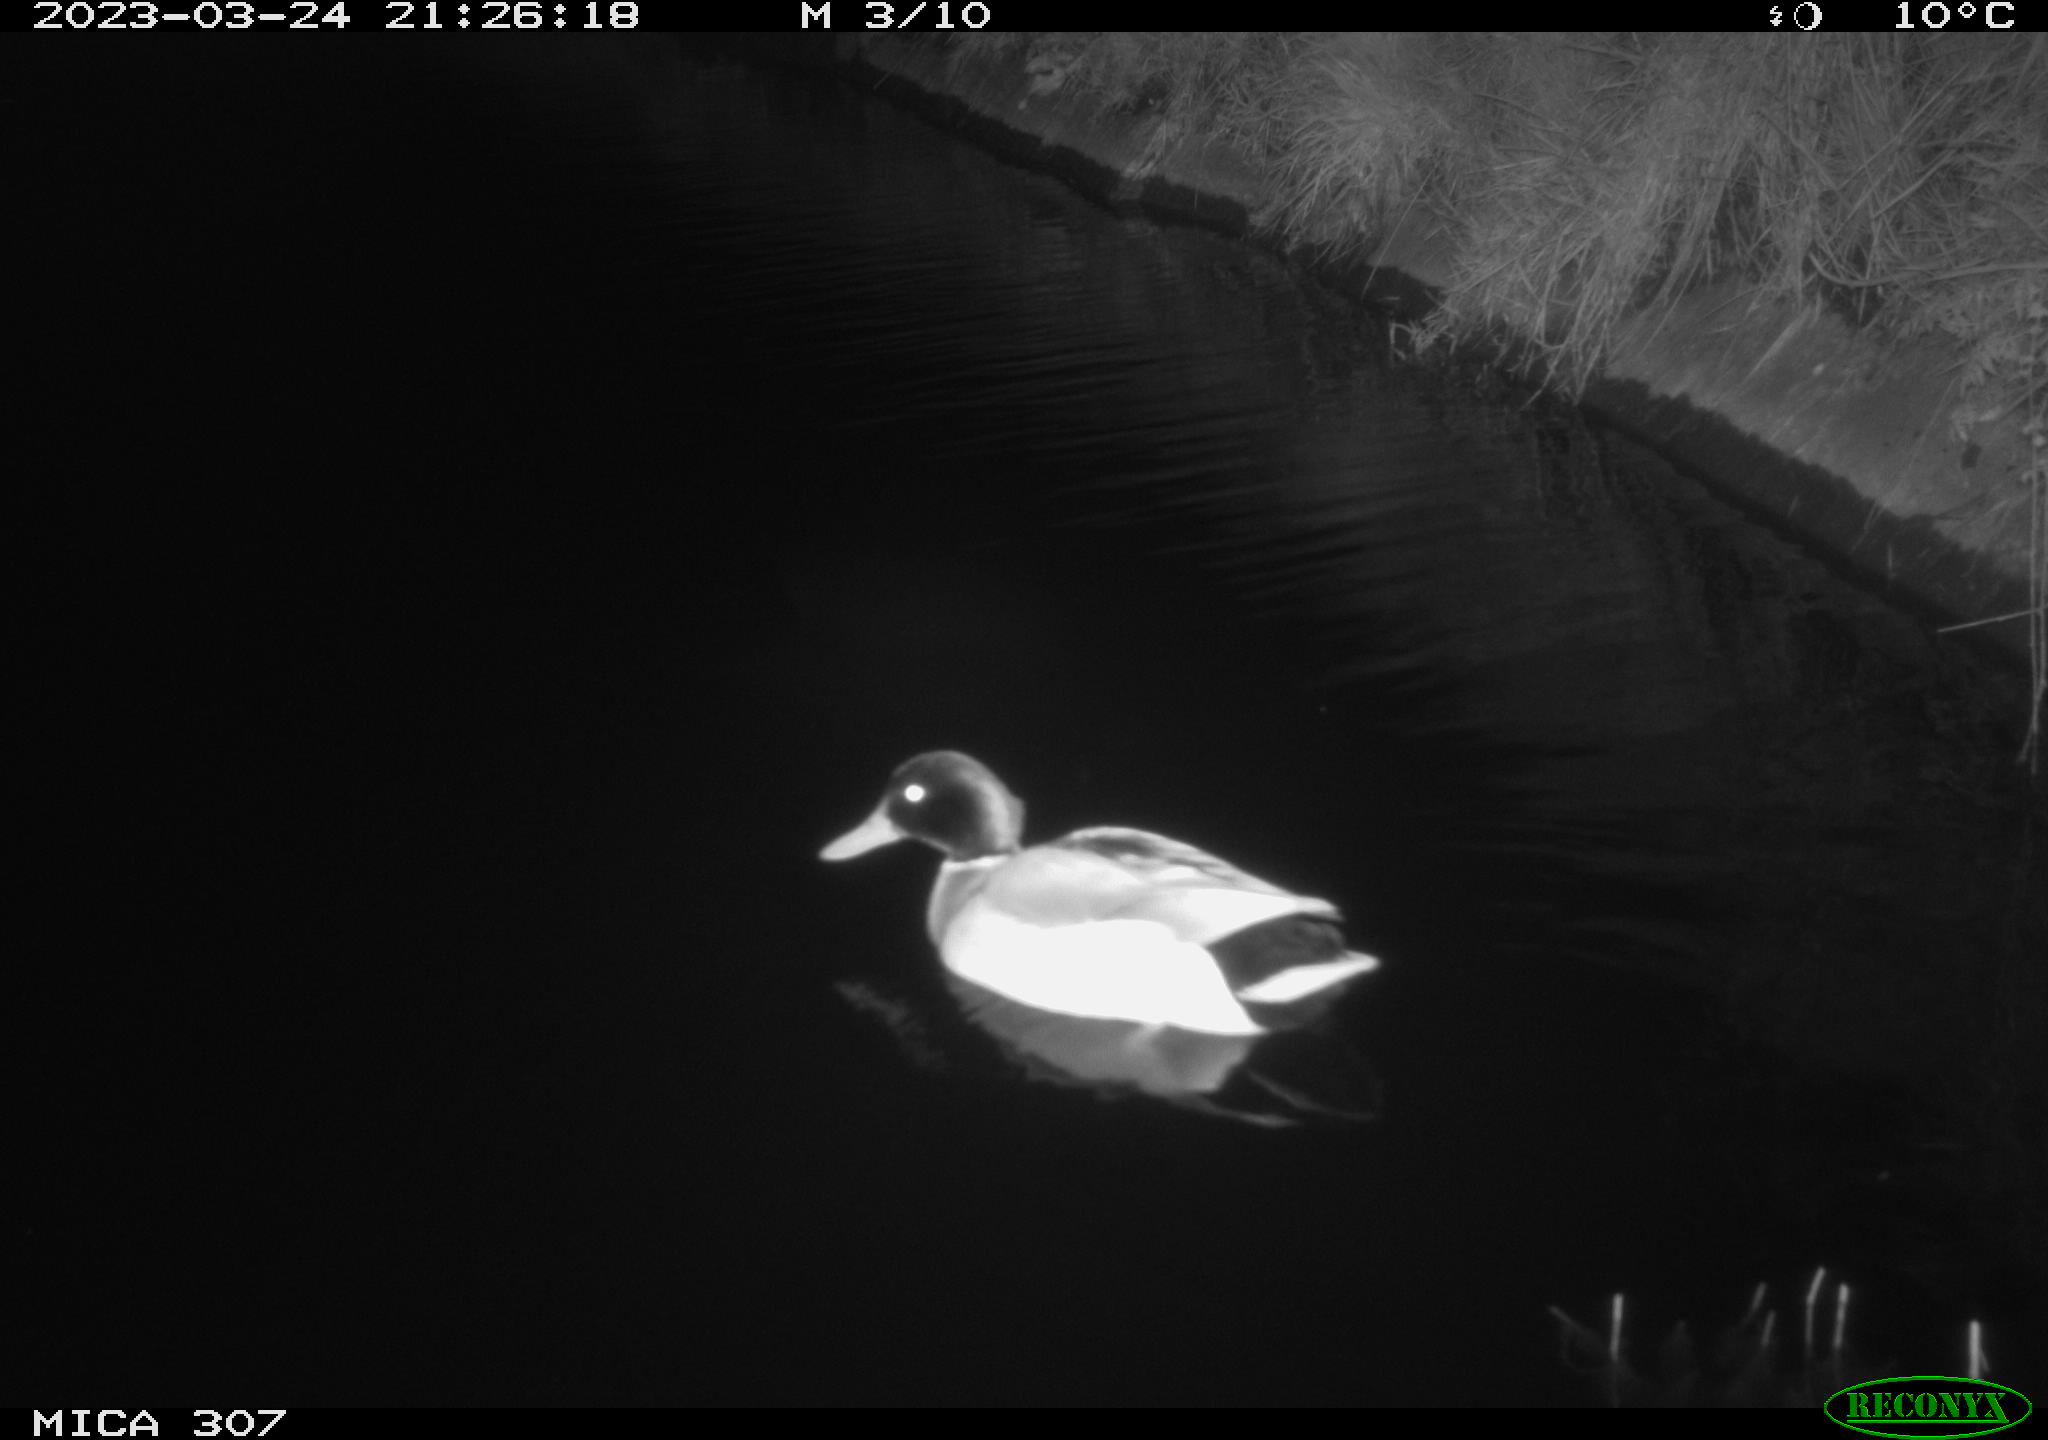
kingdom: Animalia
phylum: Chordata
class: Aves
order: Anseriformes
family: Anatidae
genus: Anas
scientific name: Anas
